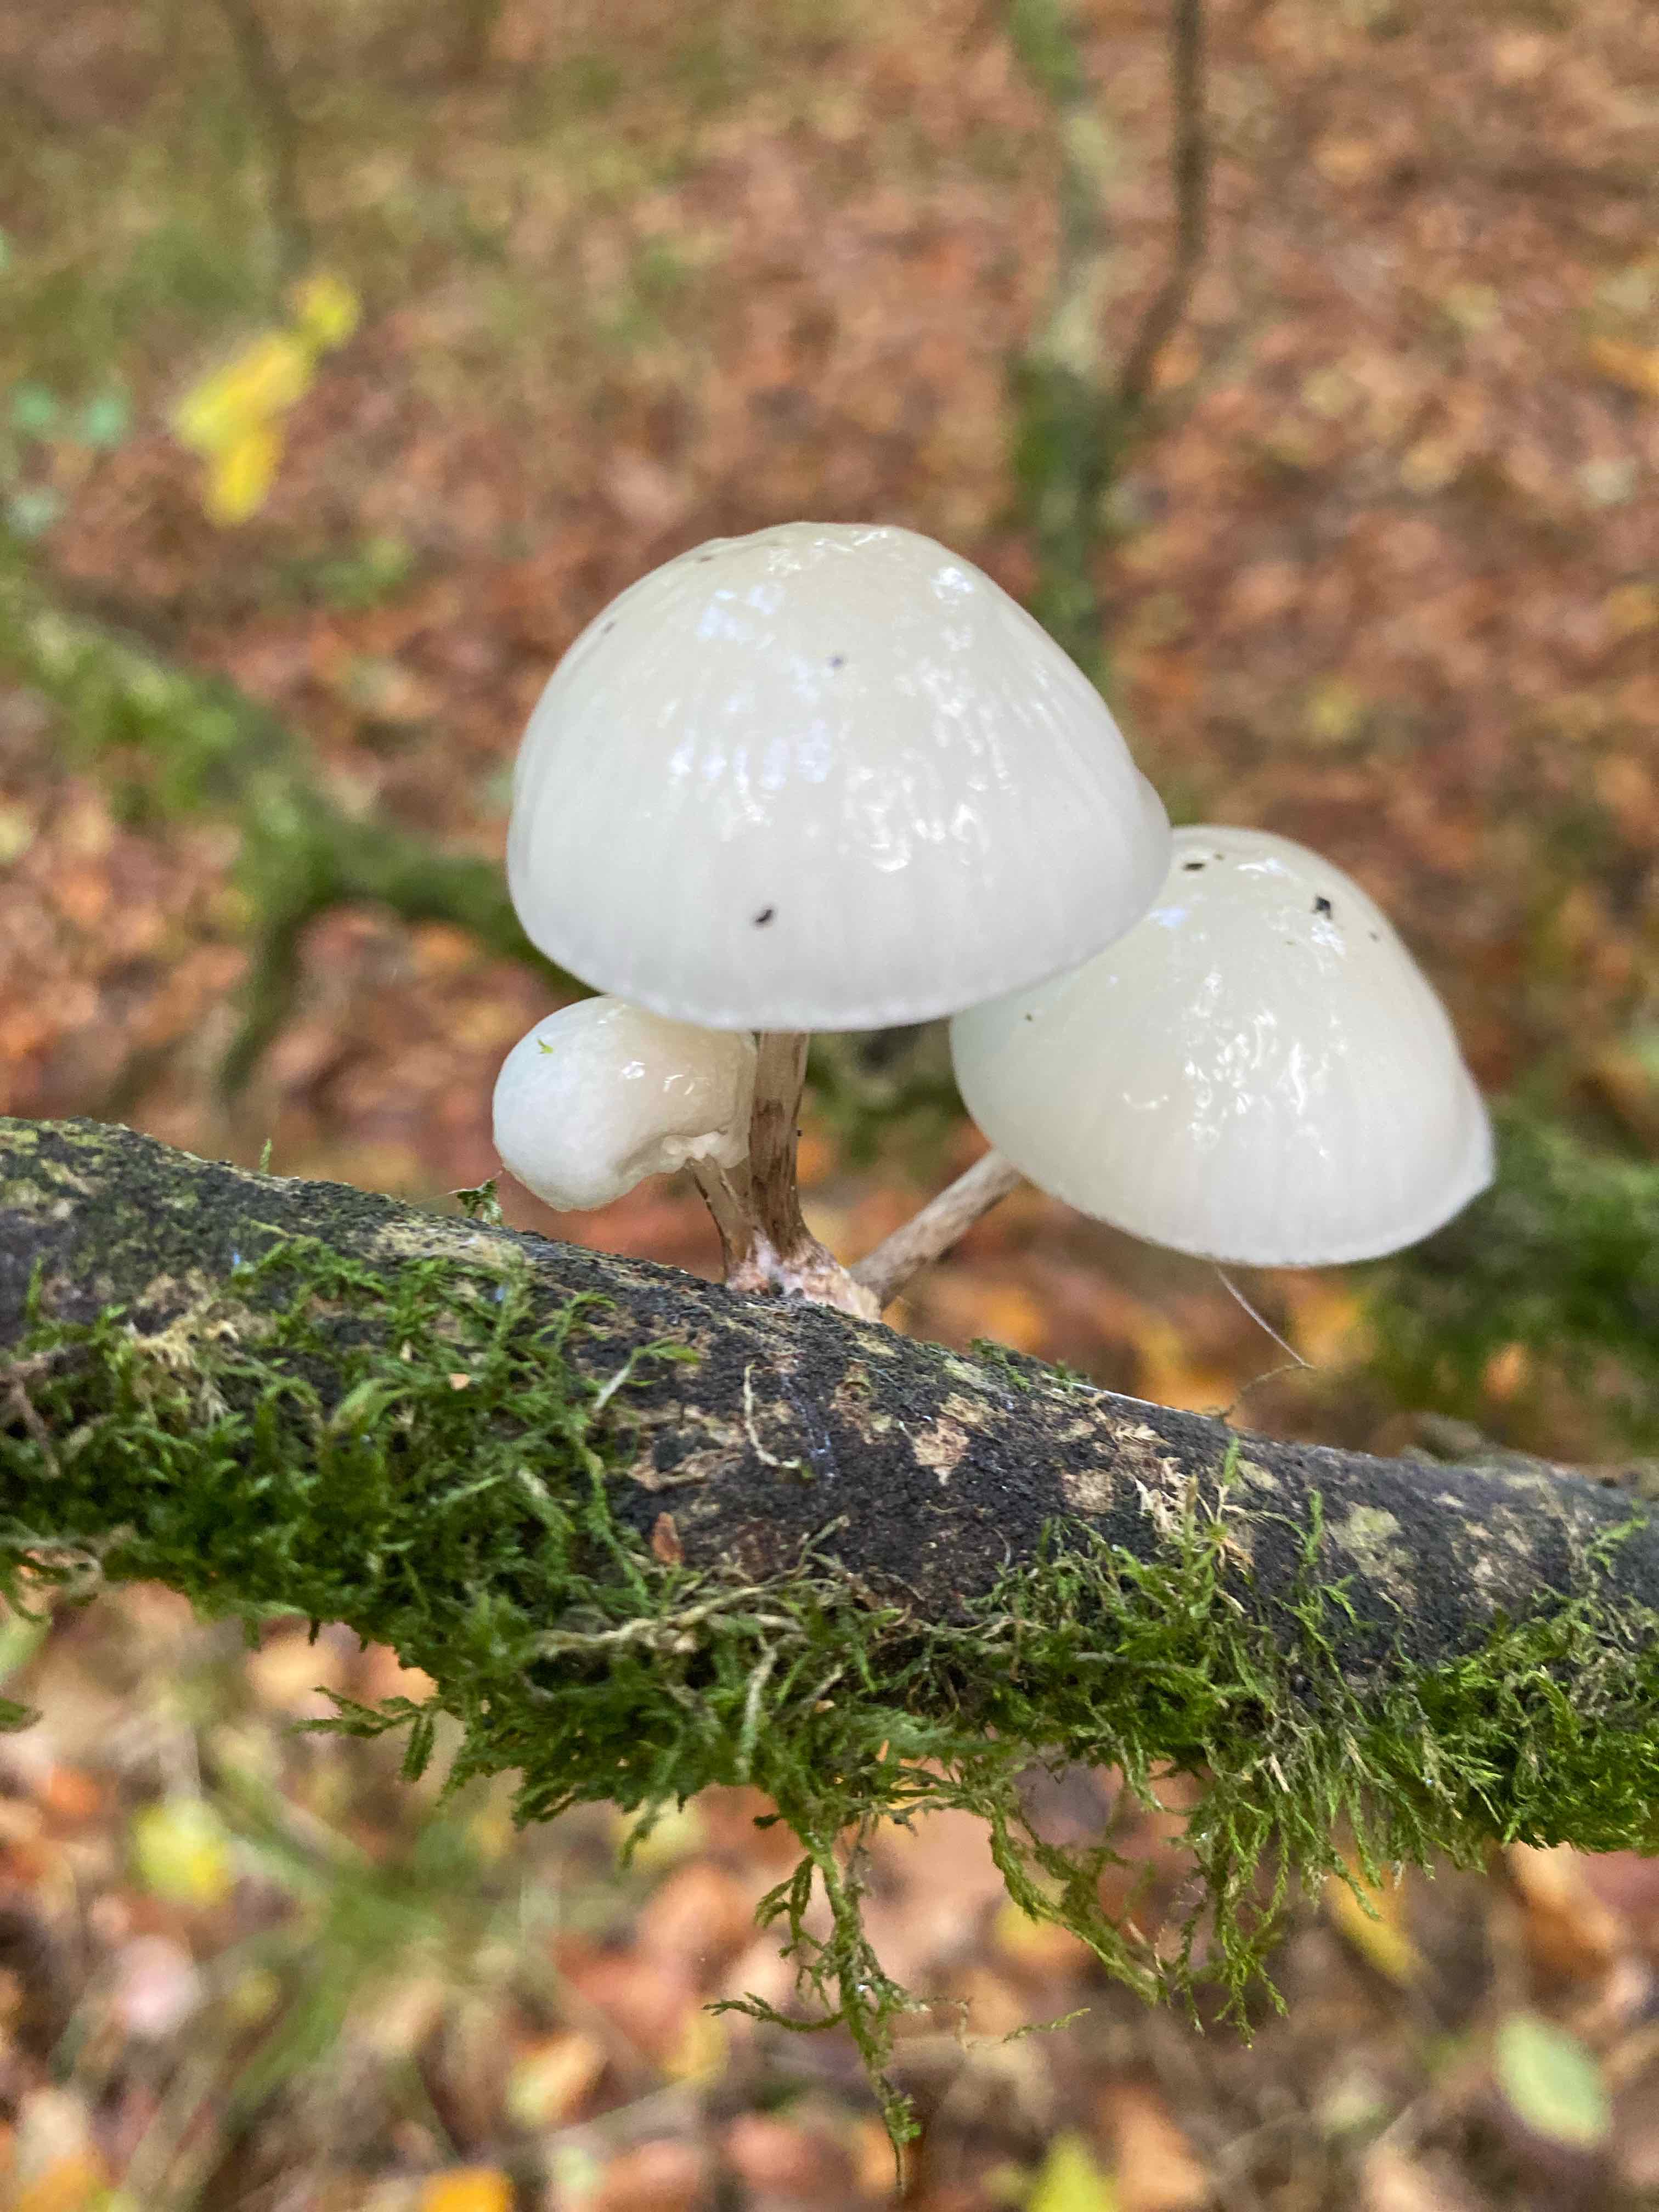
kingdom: Fungi
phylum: Basidiomycota
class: Agaricomycetes
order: Agaricales
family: Physalacriaceae
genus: Mucidula
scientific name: Mucidula mucida
